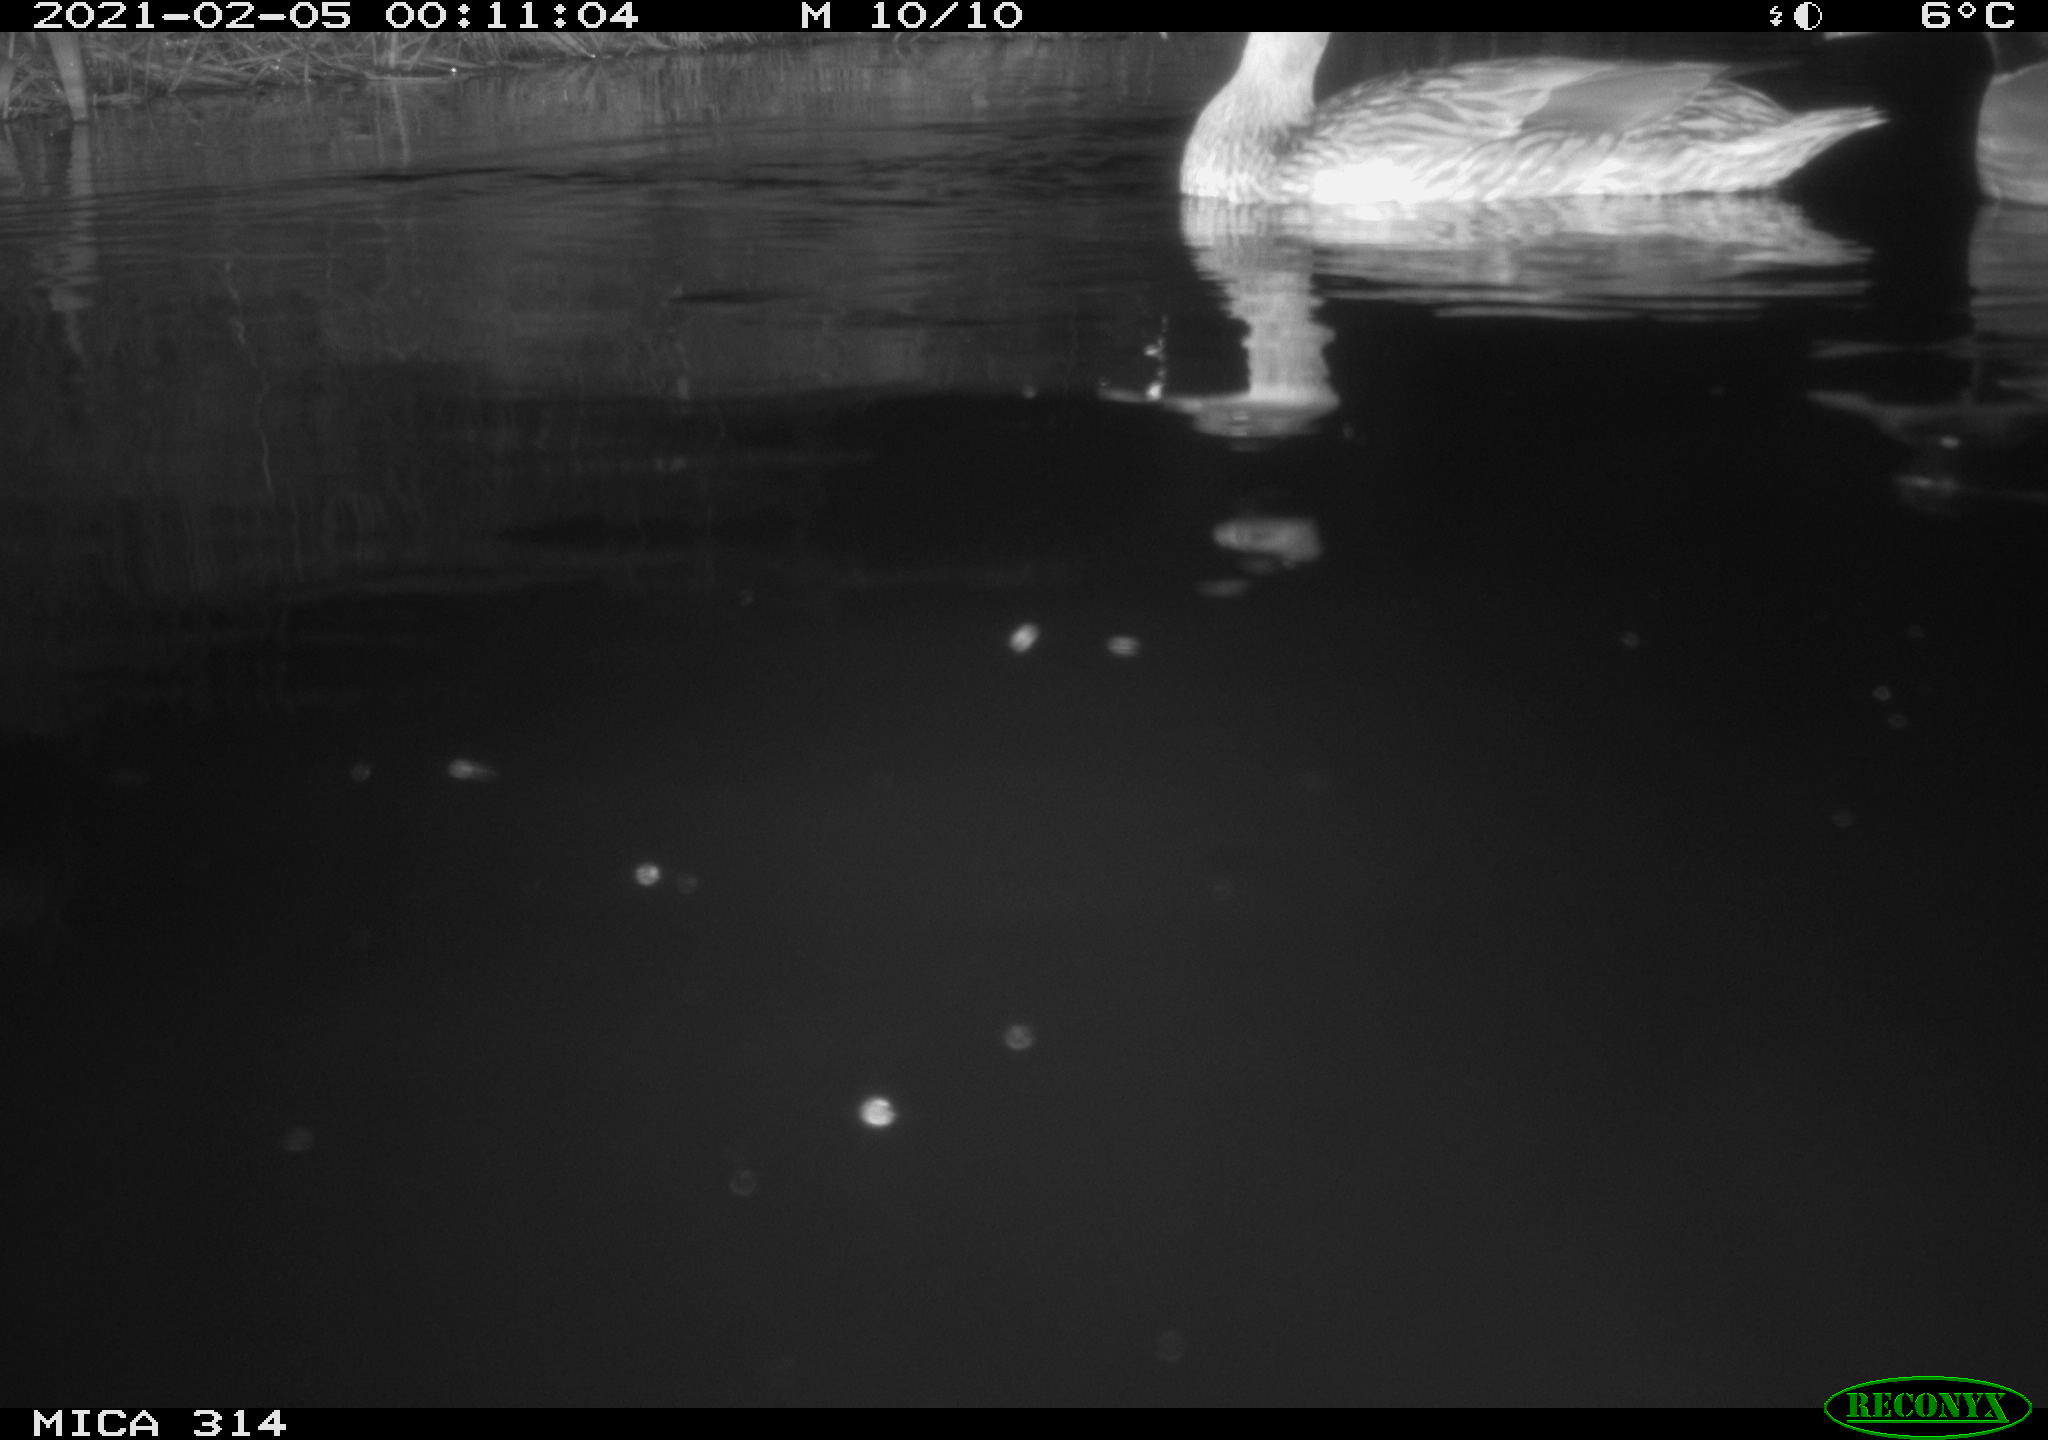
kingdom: Animalia
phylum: Chordata
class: Aves
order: Anseriformes
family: Anatidae
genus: Anas
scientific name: Anas platyrhynchos
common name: Mallard
